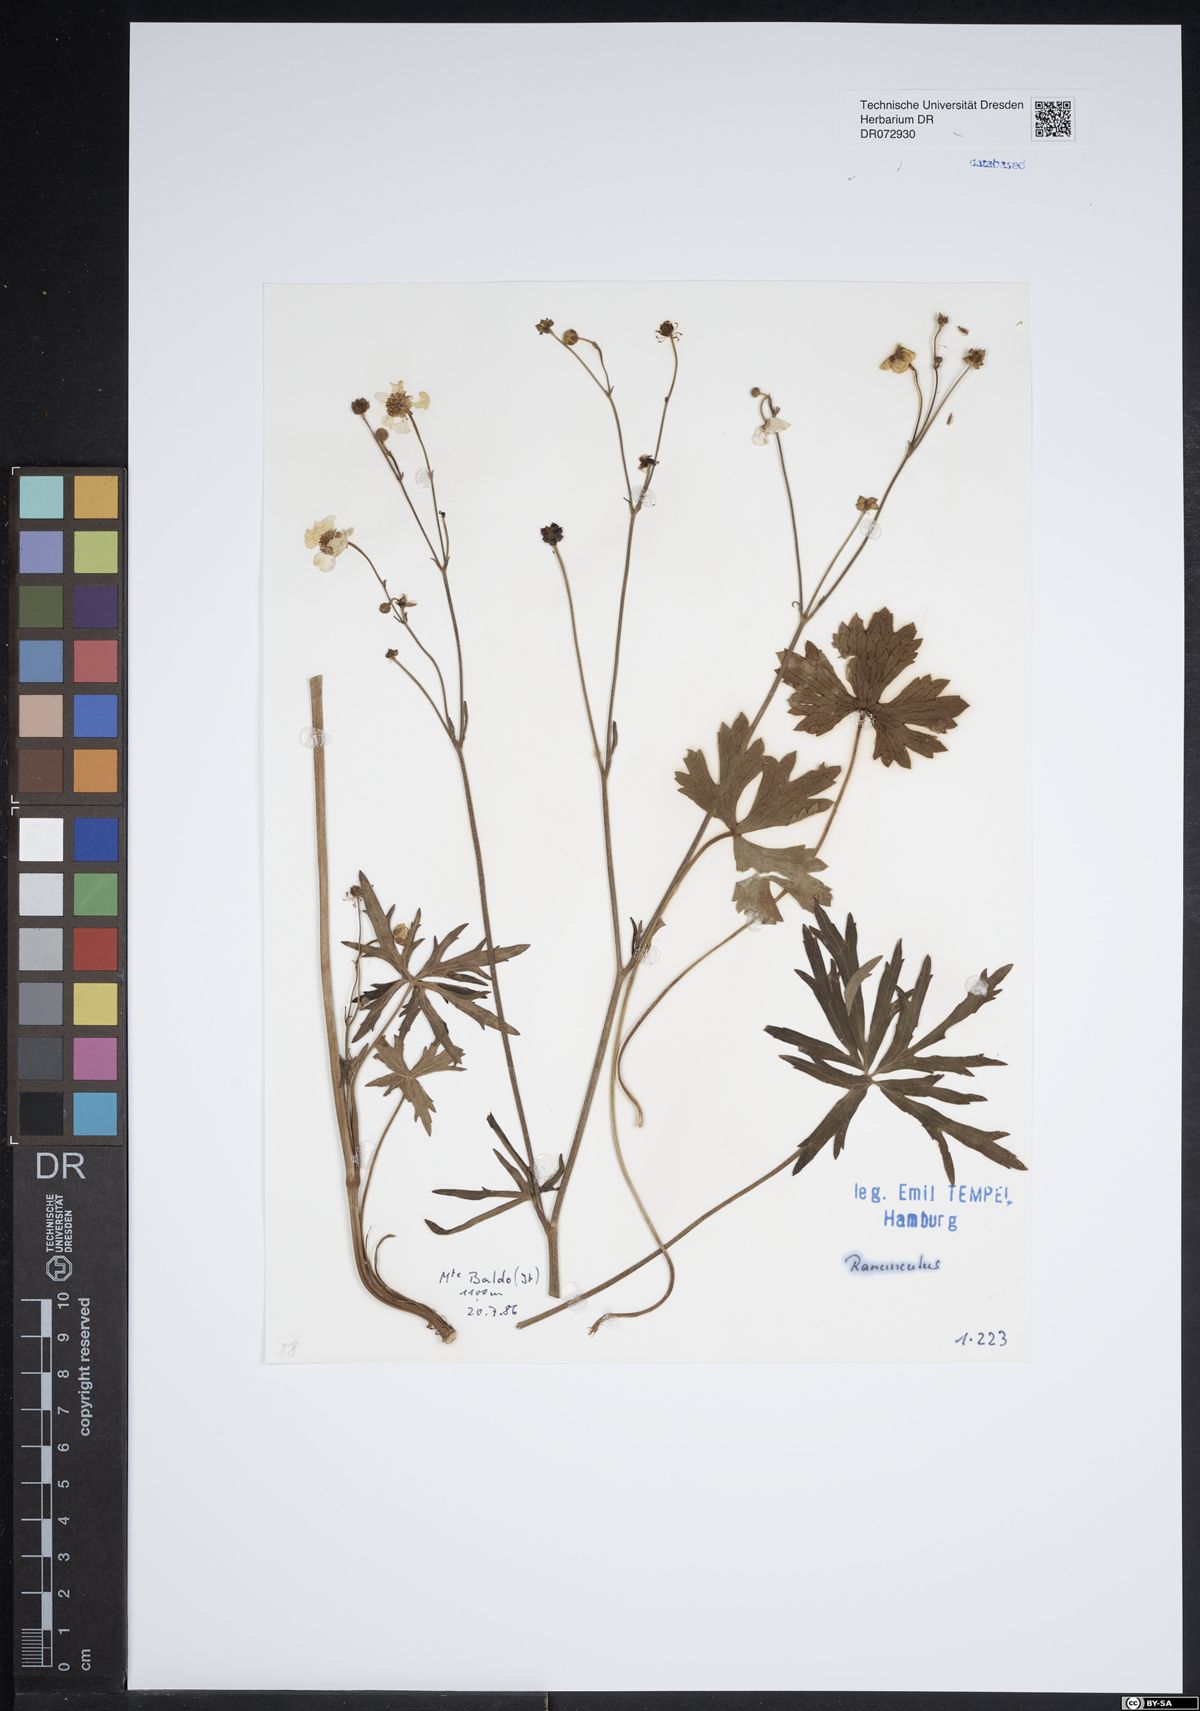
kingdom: Plantae
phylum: Tracheophyta
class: Magnoliopsida
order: Ranunculales
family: Ranunculaceae
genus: Ranunculus
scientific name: Ranunculus
